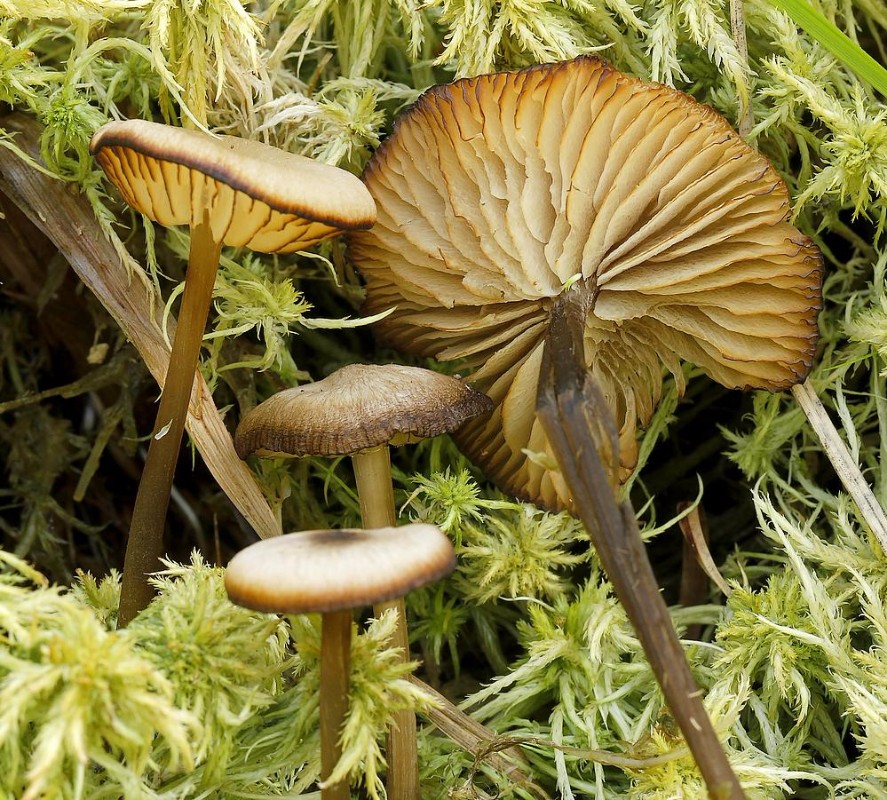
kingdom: Fungi
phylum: Basidiomycota
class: Agaricomycetes
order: Agaricales
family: Lyophyllaceae
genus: Sphagnurus
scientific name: Sphagnurus paluster
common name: tørvemos-gråblad
